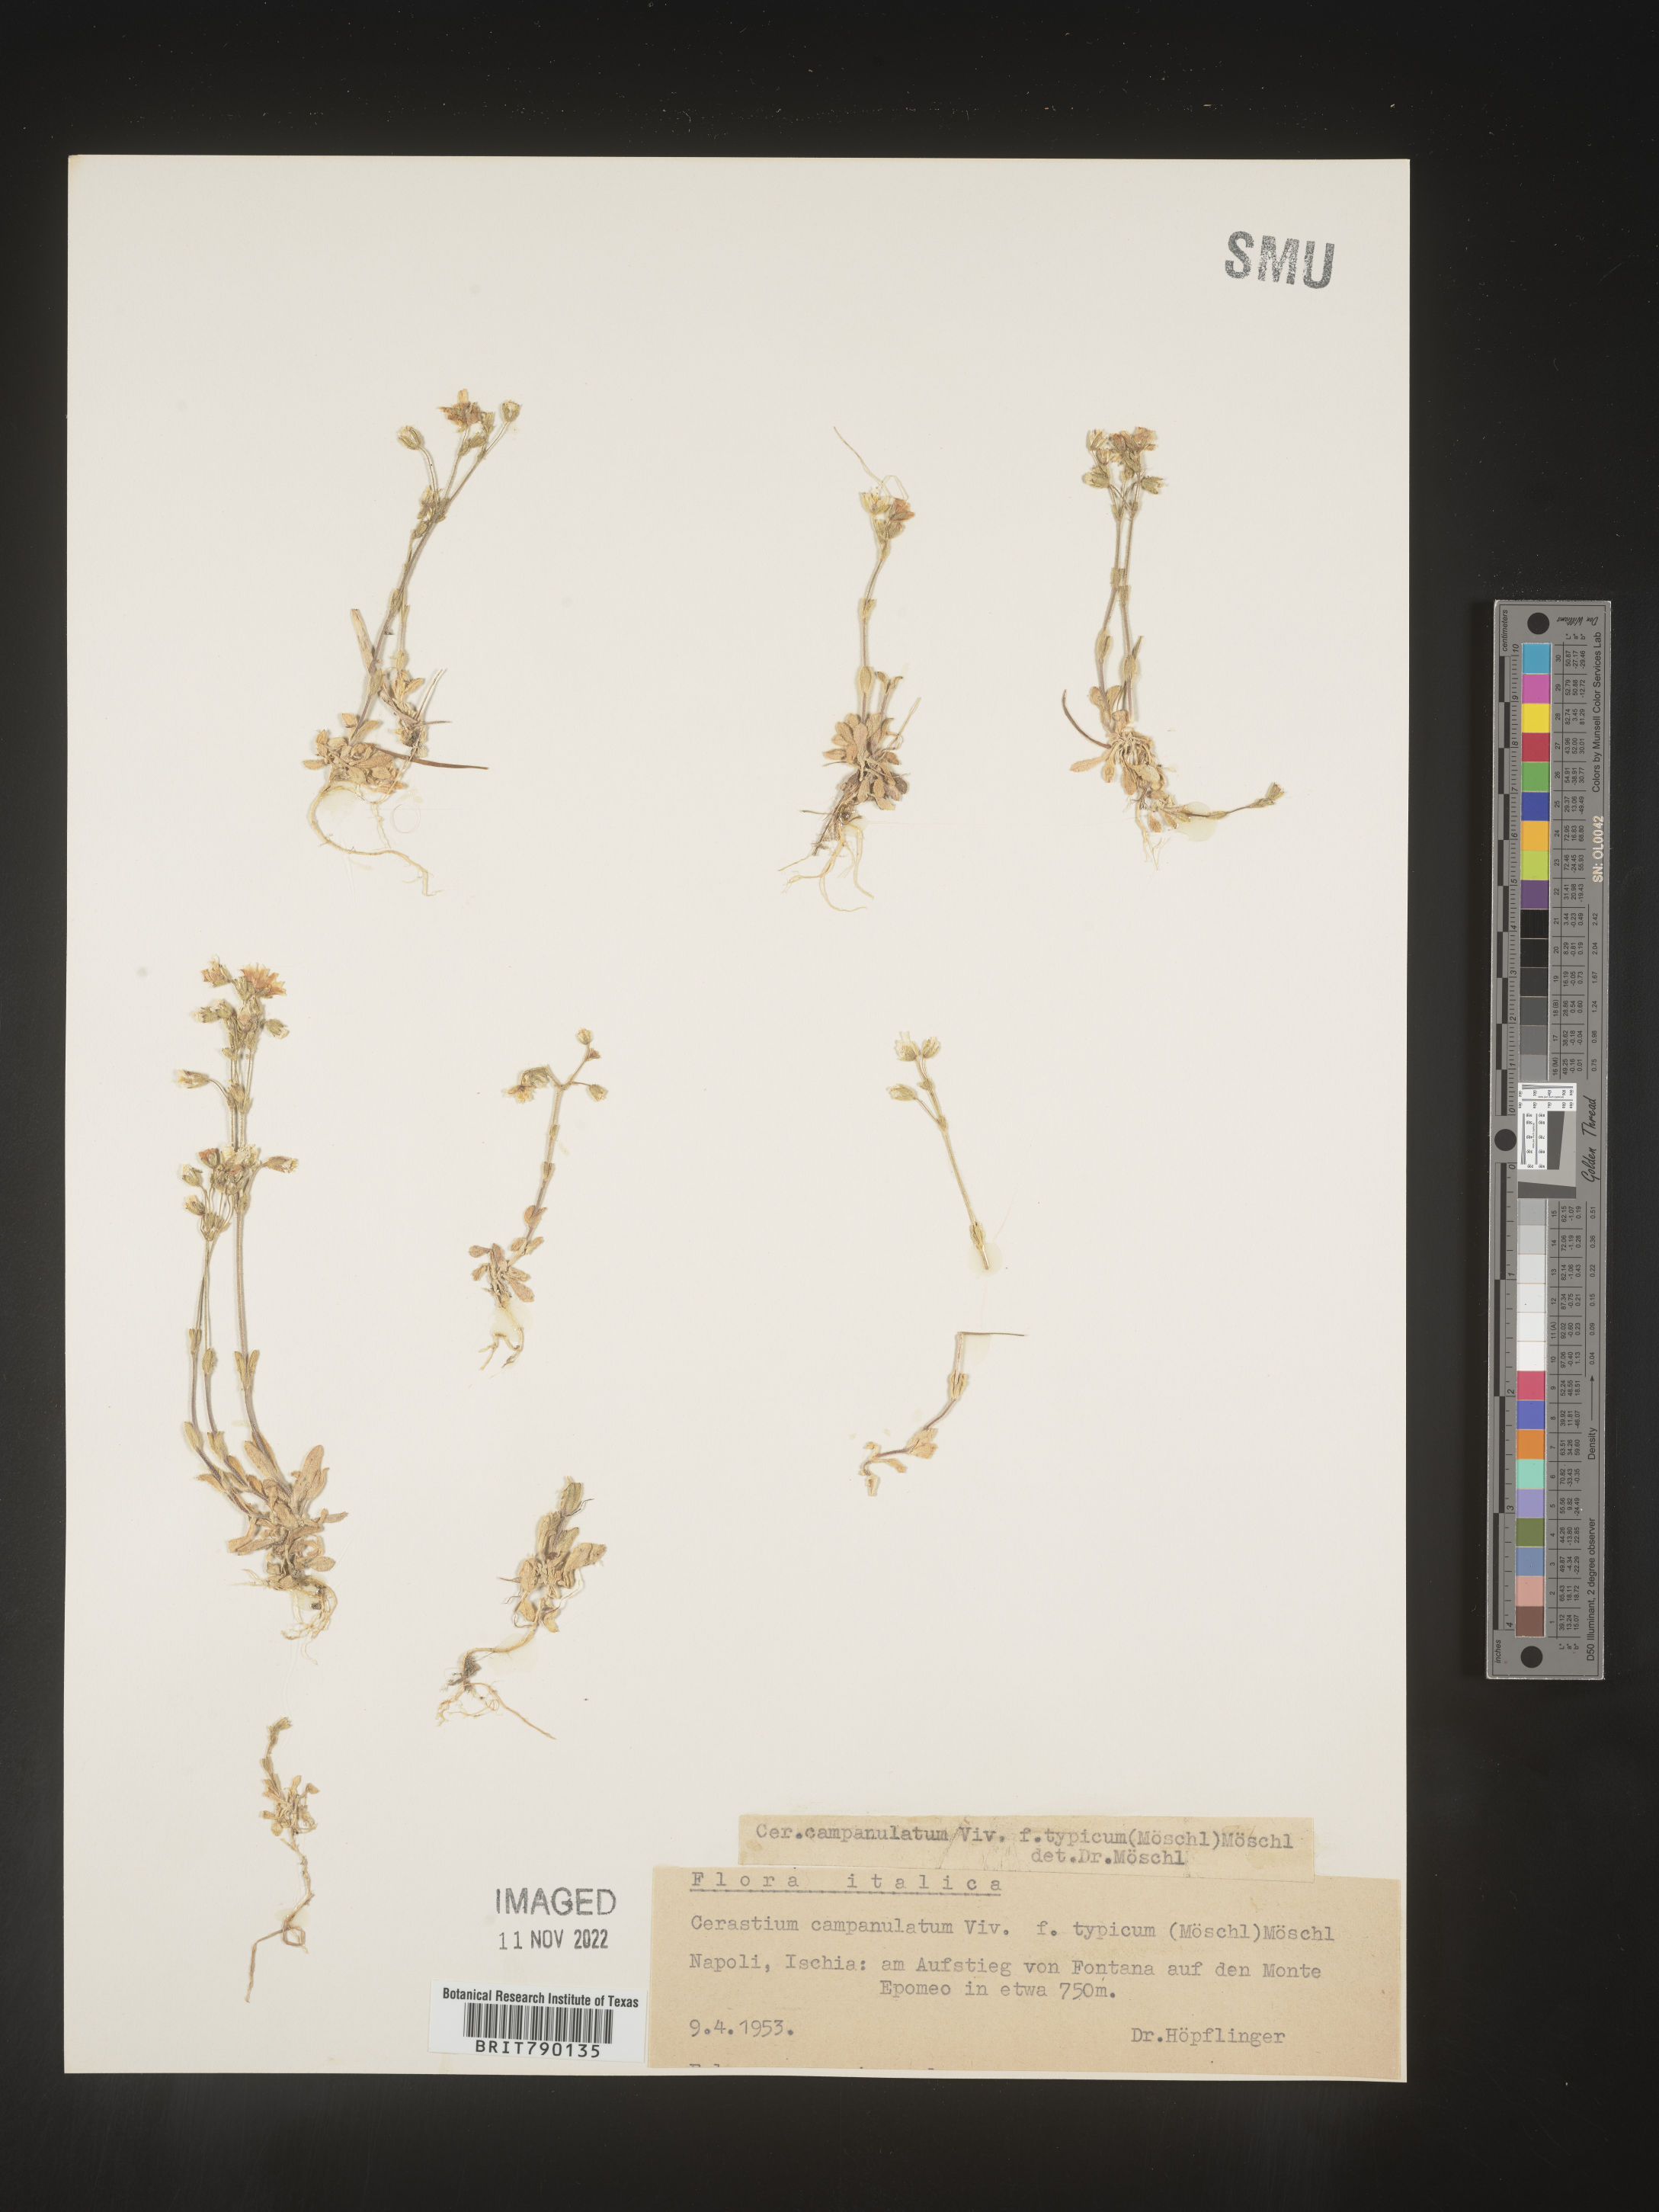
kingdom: Plantae
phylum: Tracheophyta
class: Magnoliopsida
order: Caryophyllales
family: Caryophyllaceae
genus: Cerastium
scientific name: Cerastium
